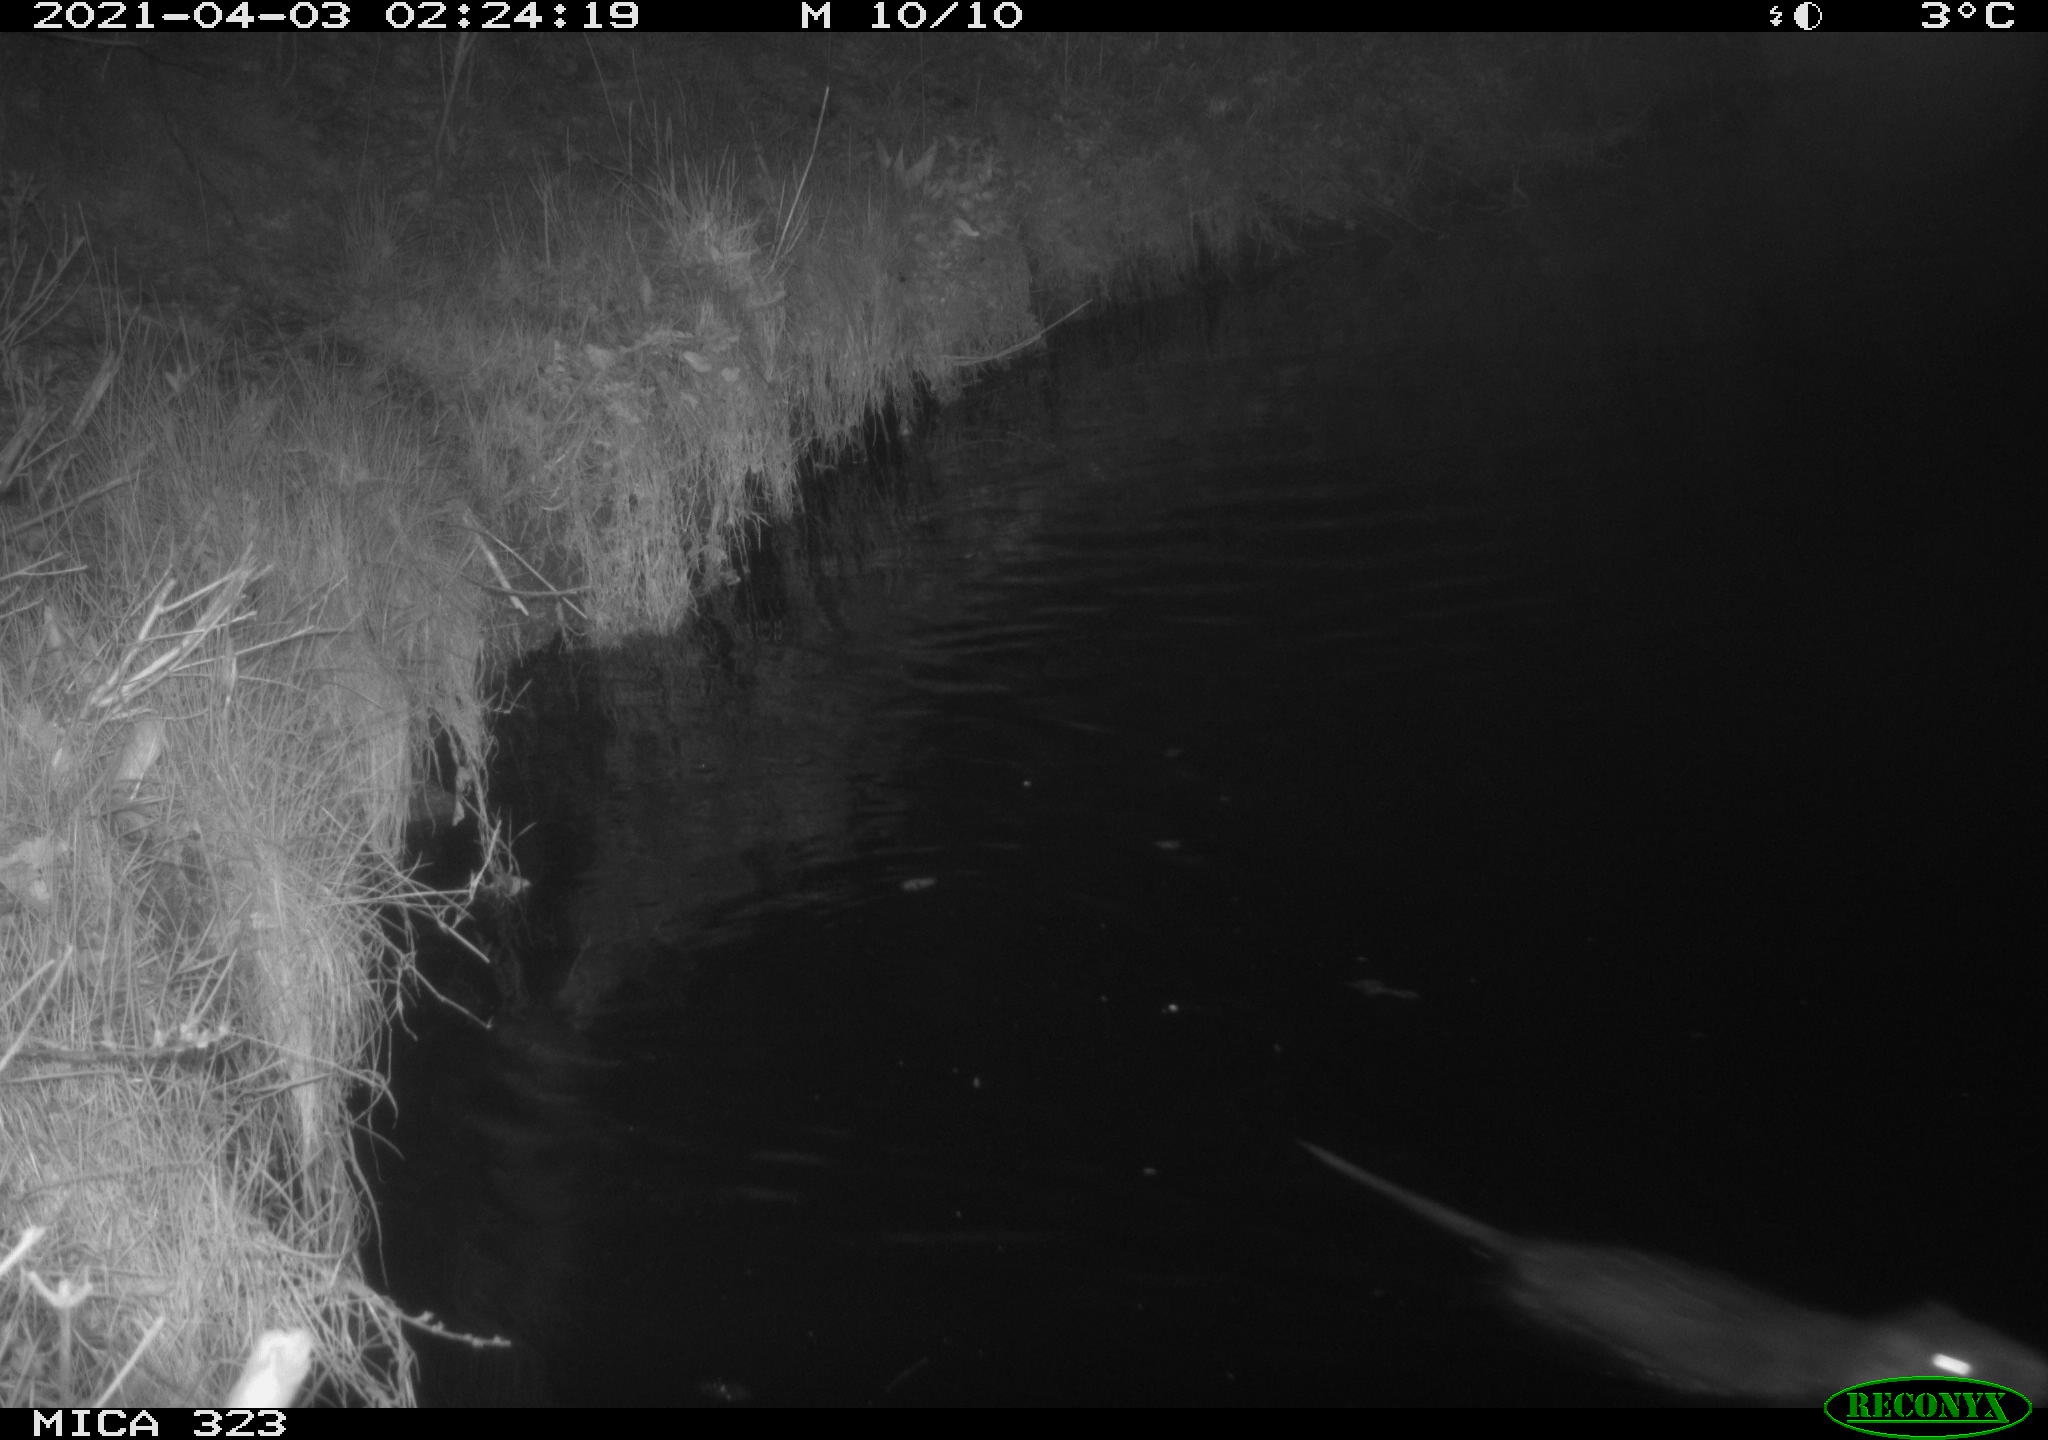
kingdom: Animalia
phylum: Chordata
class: Mammalia
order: Rodentia
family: Myocastoridae
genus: Myocastor
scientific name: Myocastor coypus
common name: Coypu
